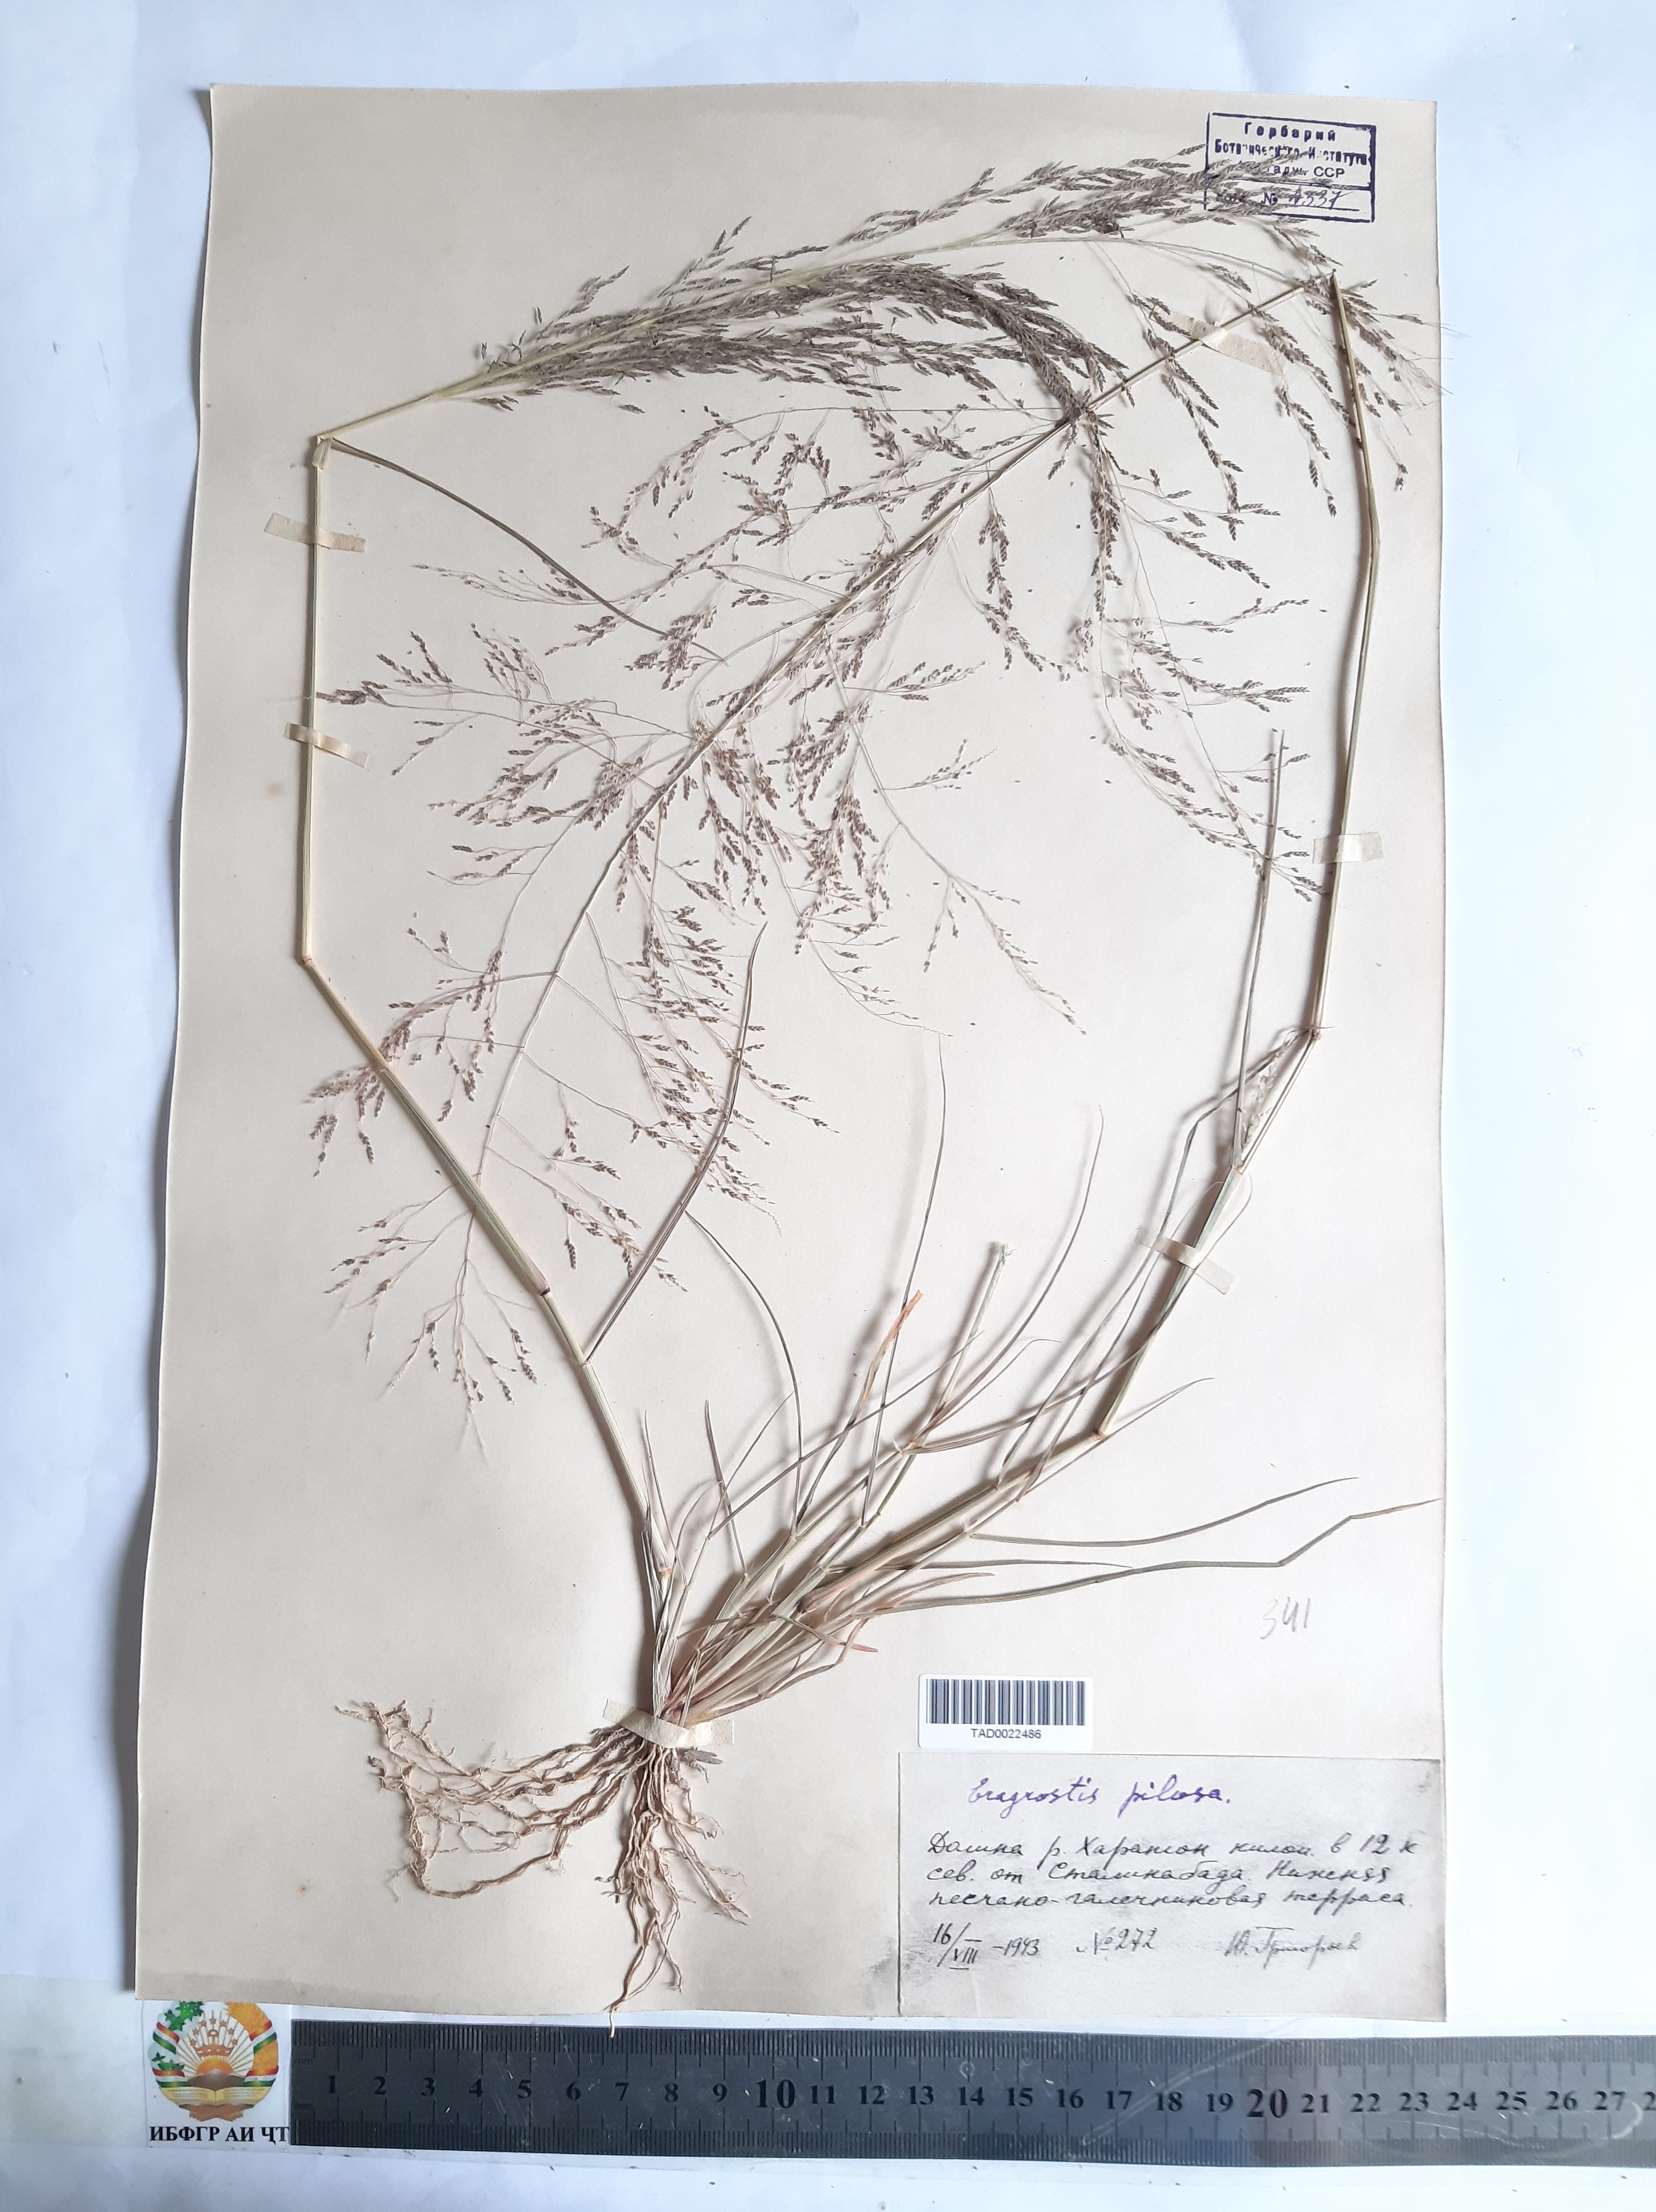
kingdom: Plantae
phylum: Tracheophyta
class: Liliopsida
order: Poales
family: Poaceae
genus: Eragrostis
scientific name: Eragrostis pilosa
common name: Indian lovegrass
